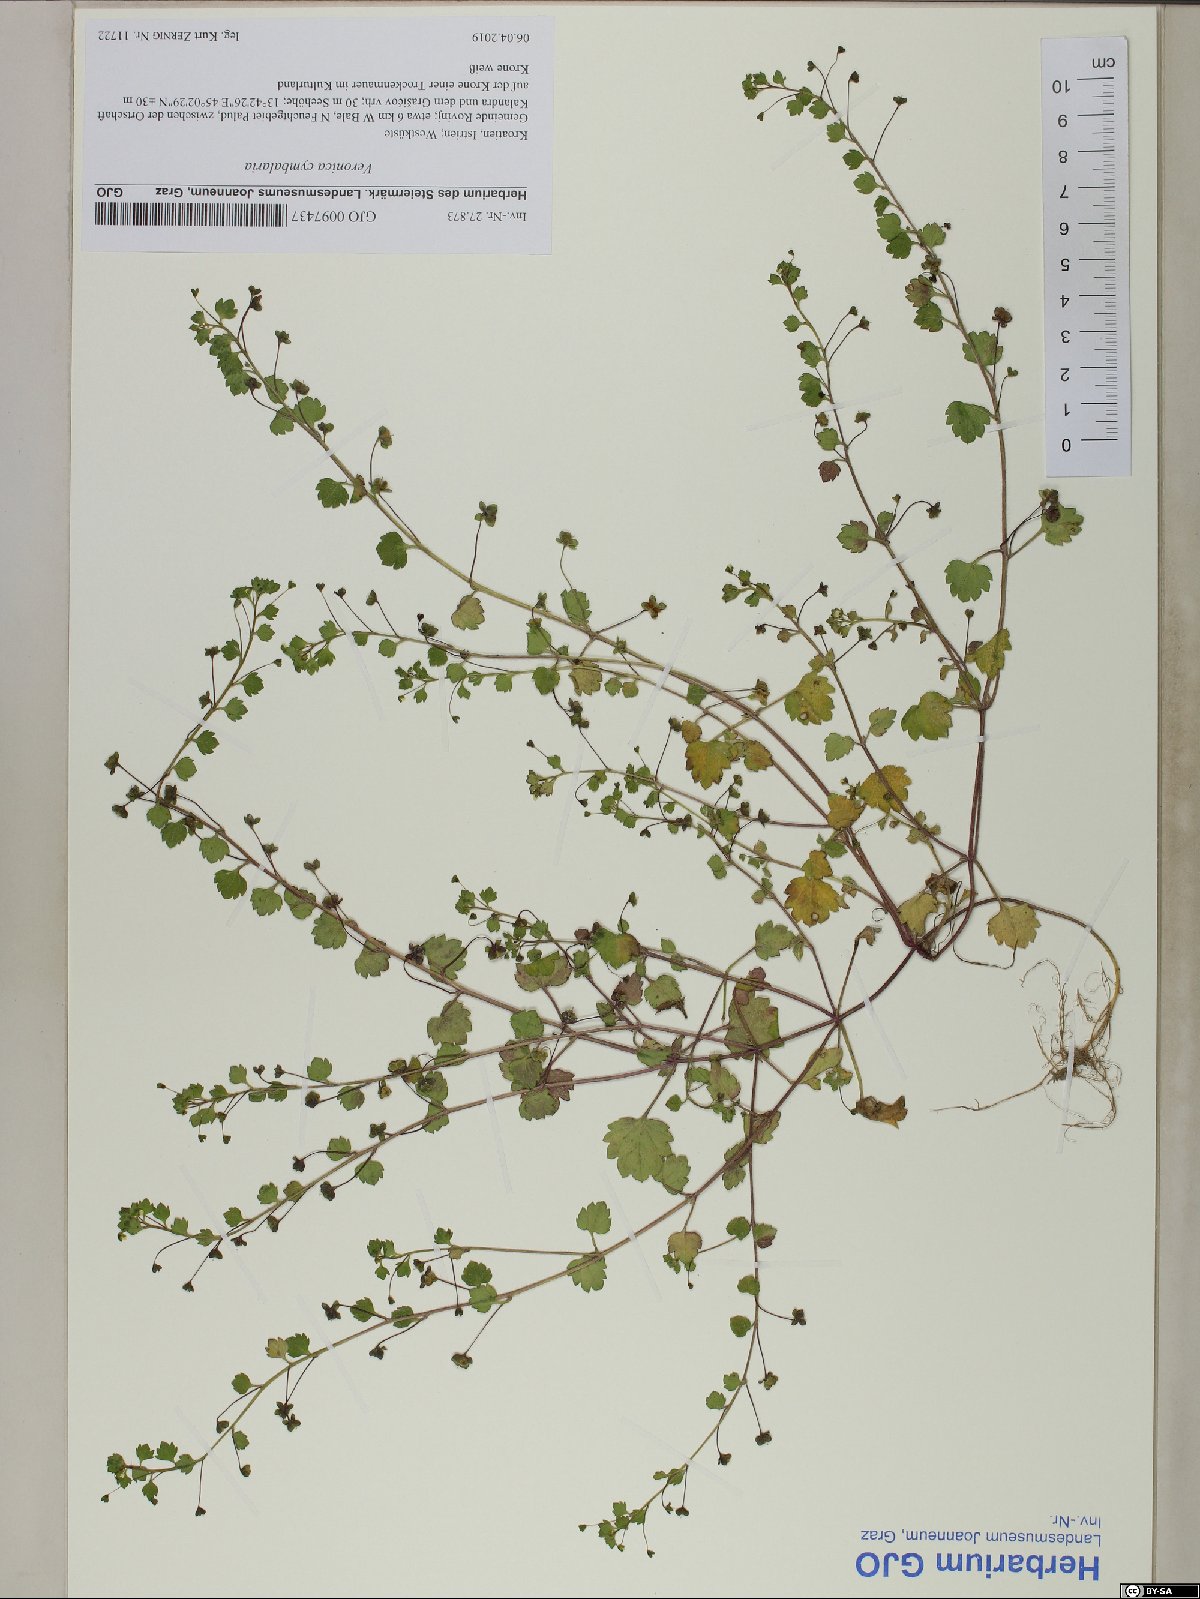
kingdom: Plantae
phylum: Tracheophyta
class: Magnoliopsida
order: Lamiales
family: Plantaginaceae
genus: Veronica
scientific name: Veronica cymbalaria
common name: Pale speedwell
